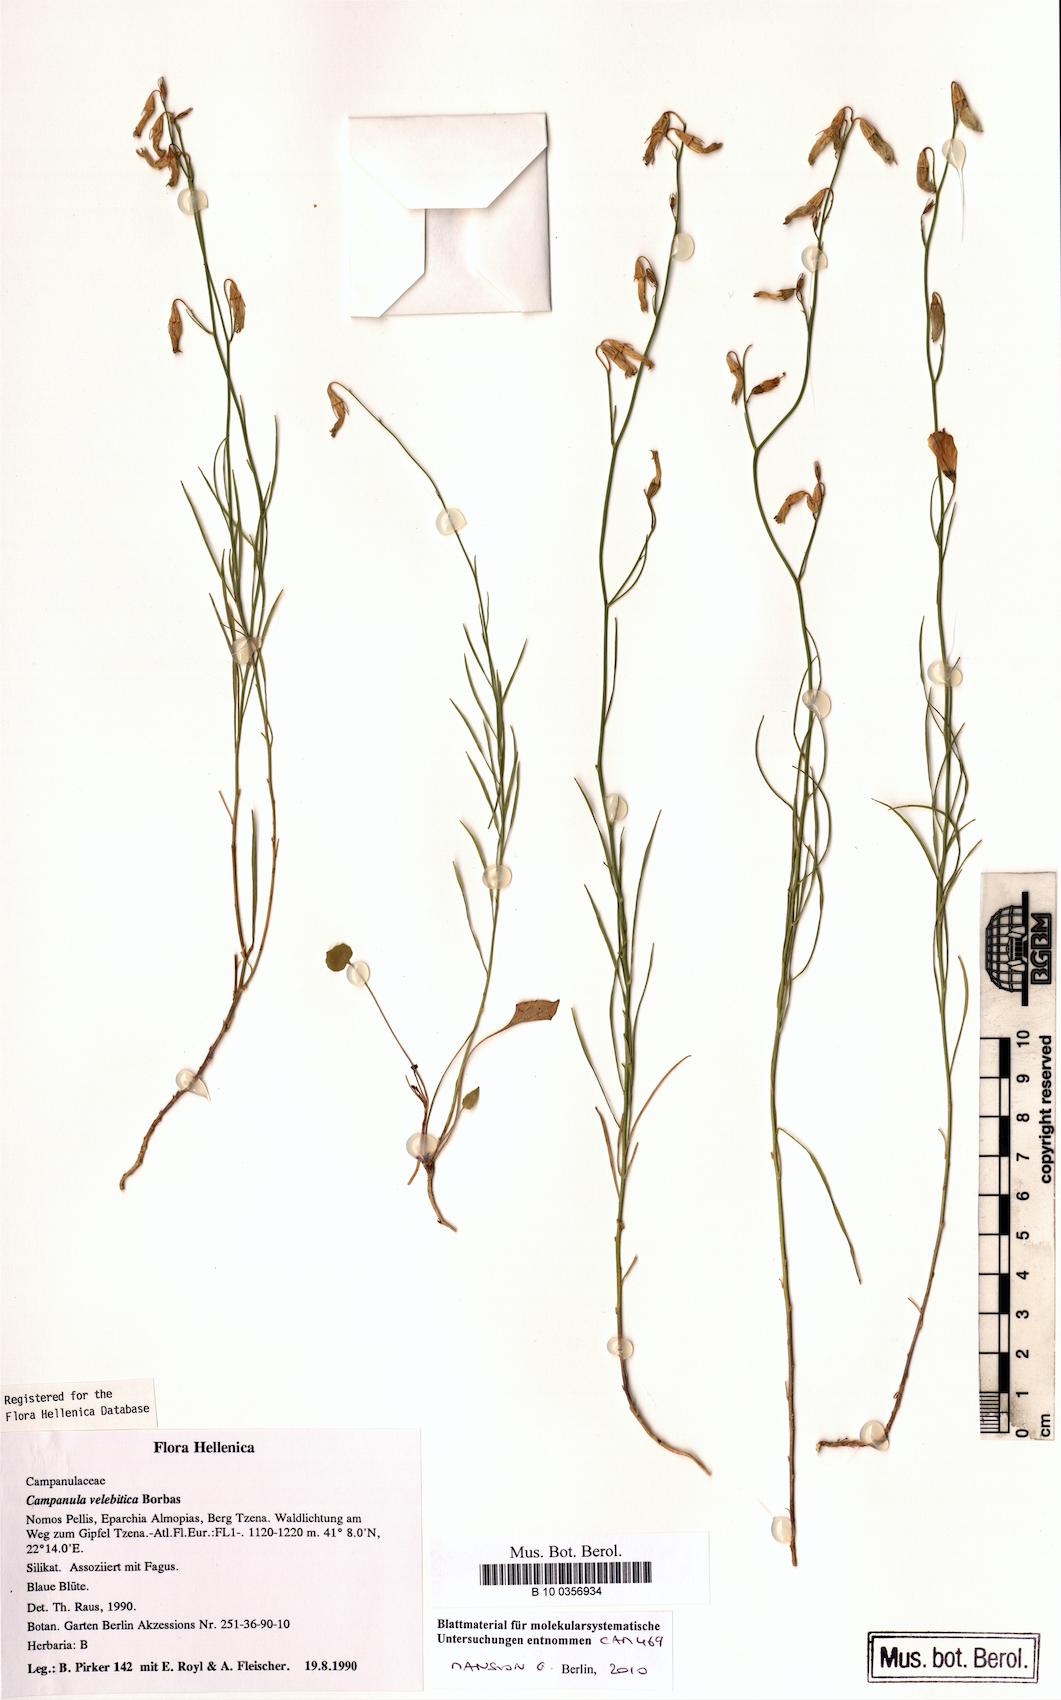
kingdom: Plantae
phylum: Tracheophyta
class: Magnoliopsida
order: Asterales
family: Campanulaceae
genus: Campanula
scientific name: Campanula velebitica
